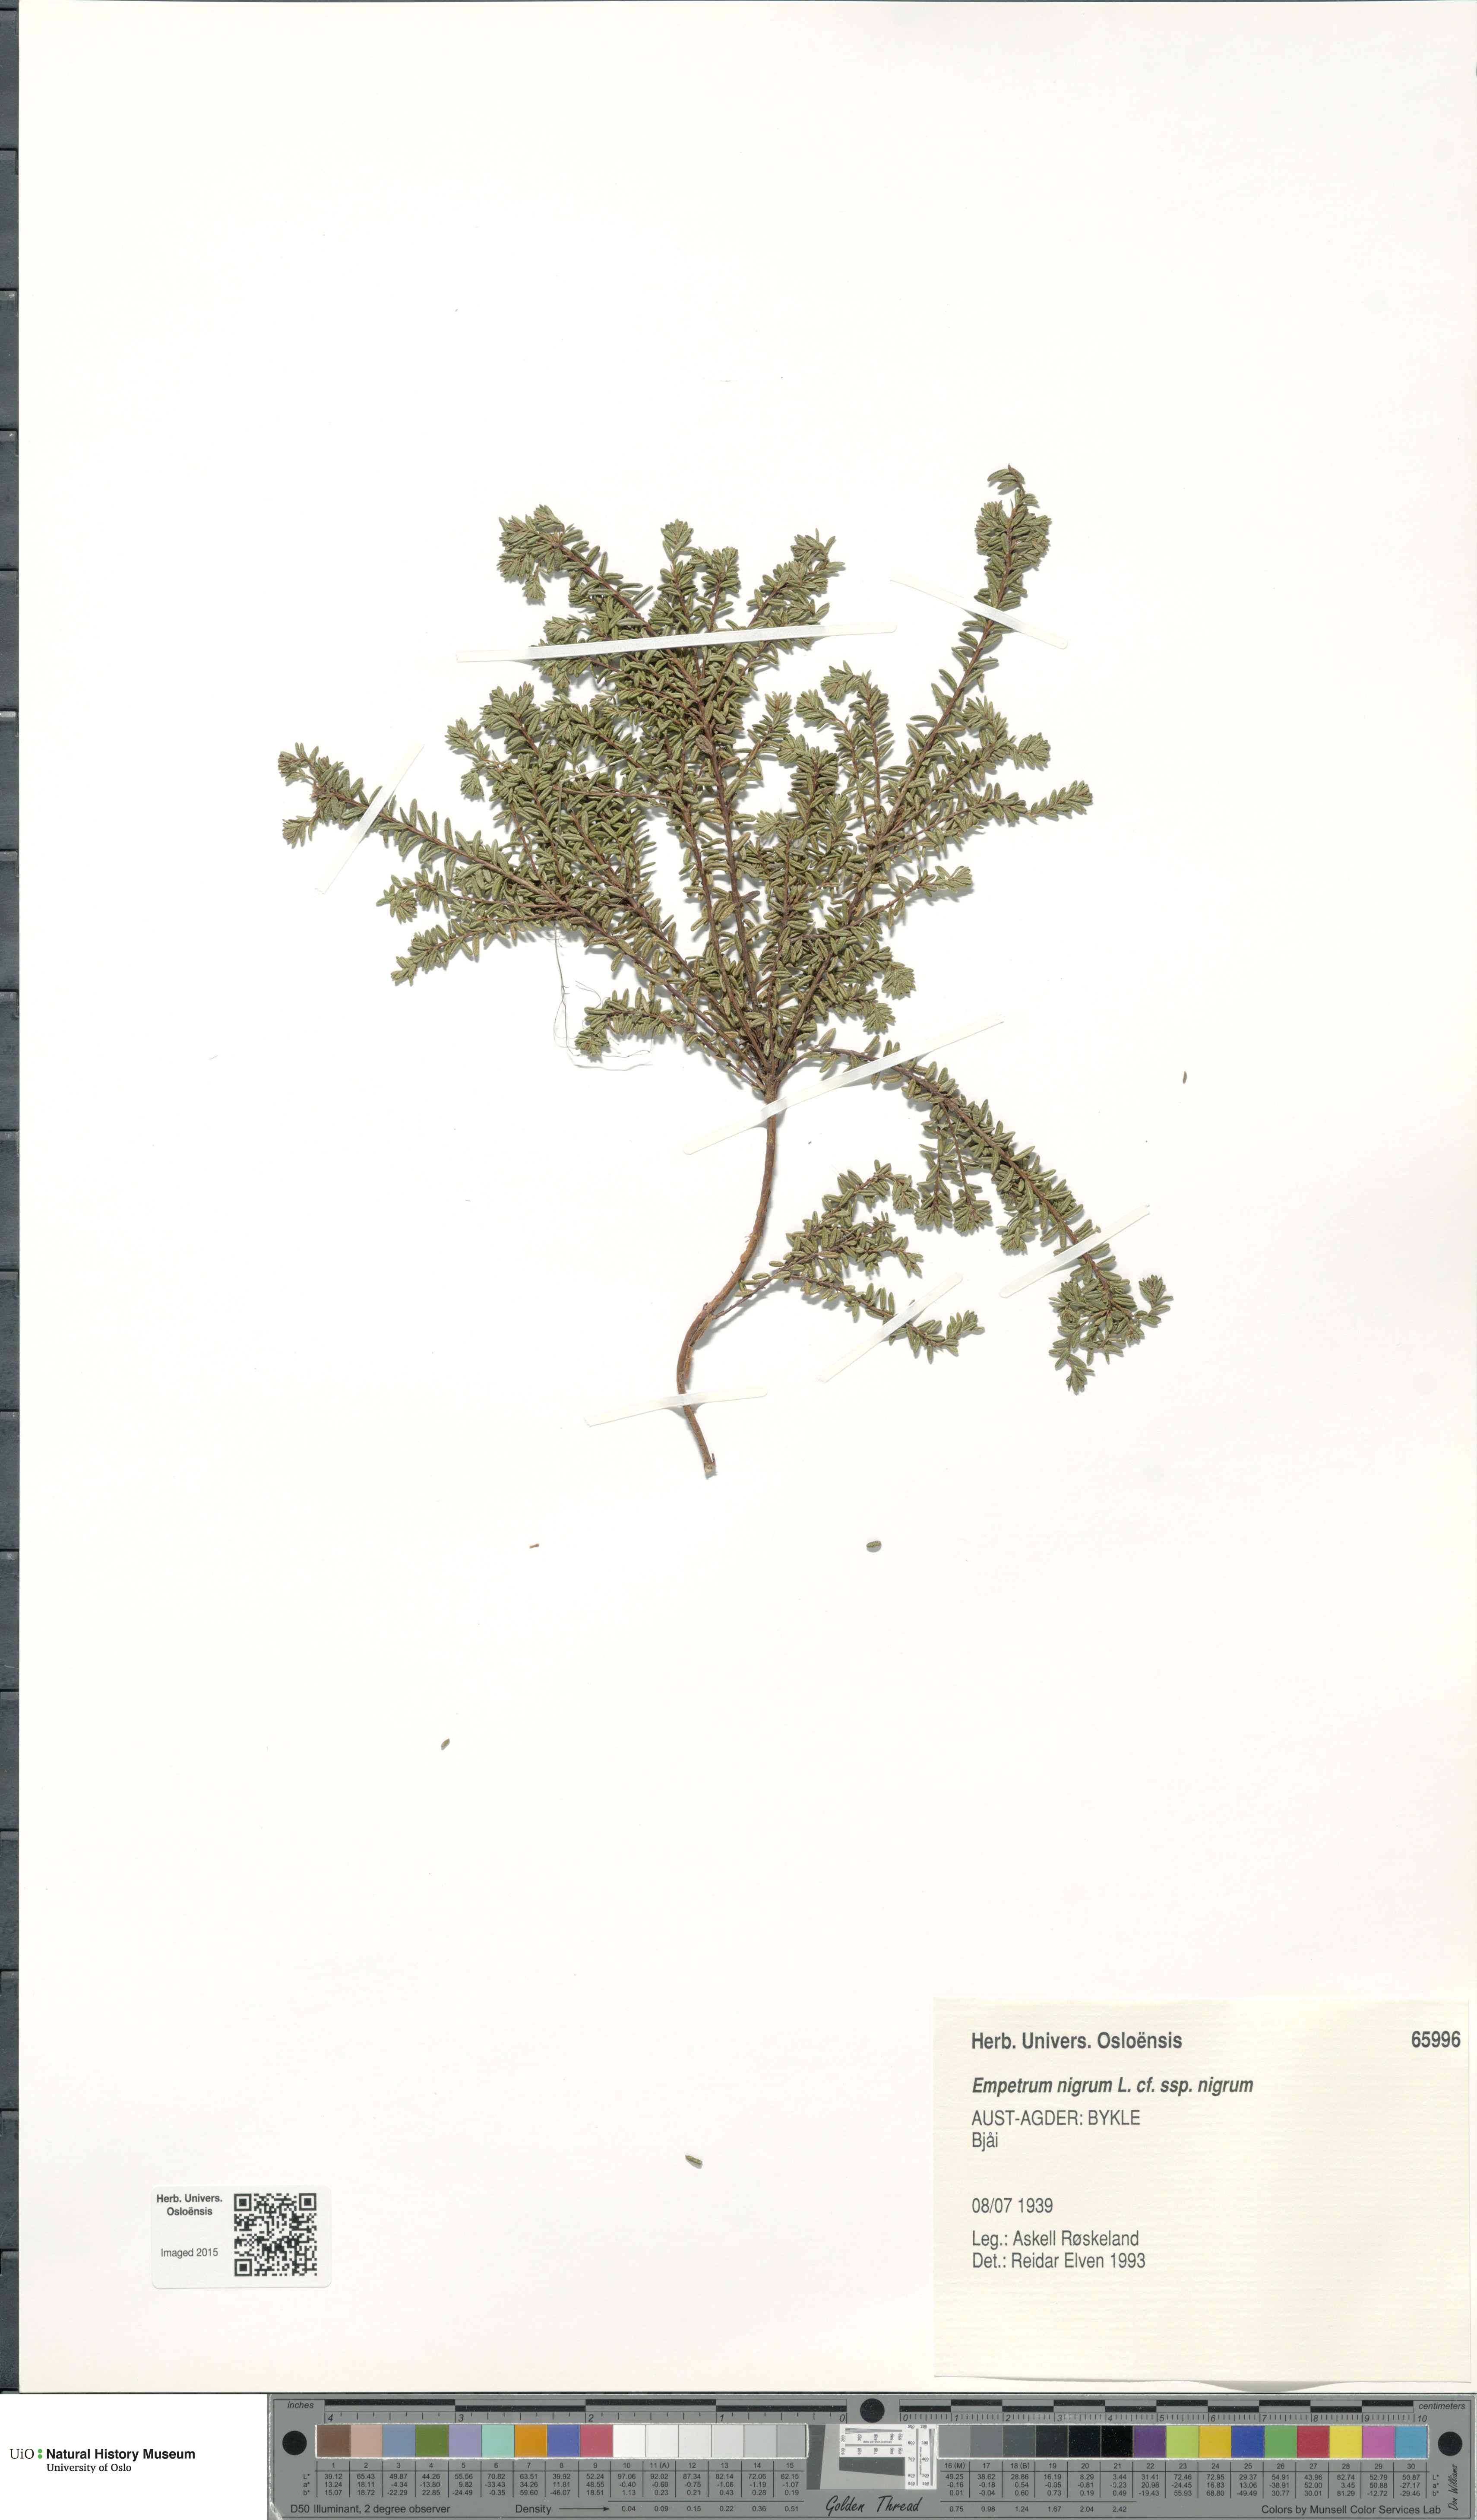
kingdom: Plantae
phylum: Tracheophyta
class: Magnoliopsida
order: Ericales
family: Ericaceae
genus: Empetrum
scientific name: Empetrum nigrum
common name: Black crowberry
